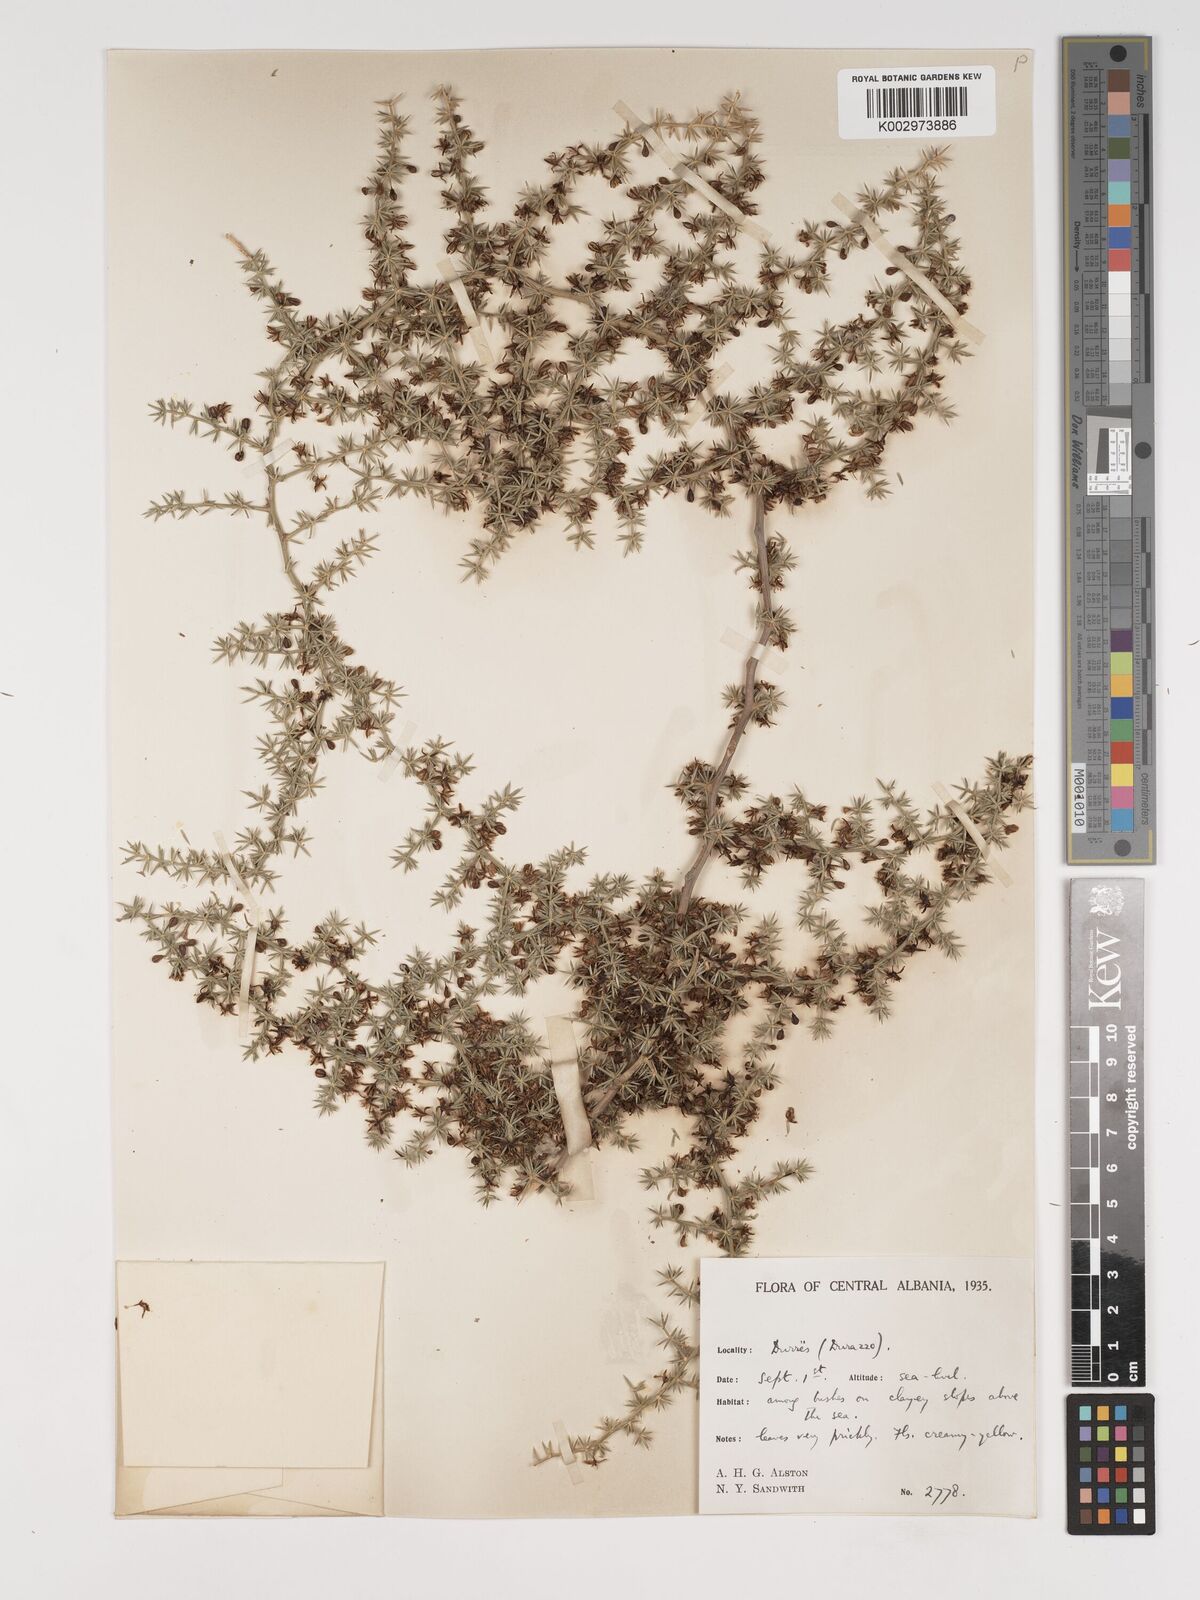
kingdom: Plantae
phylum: Tracheophyta
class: Liliopsida
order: Asparagales
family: Asparagaceae
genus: Asparagus
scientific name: Asparagus acutifolius
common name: Wild asparagus
